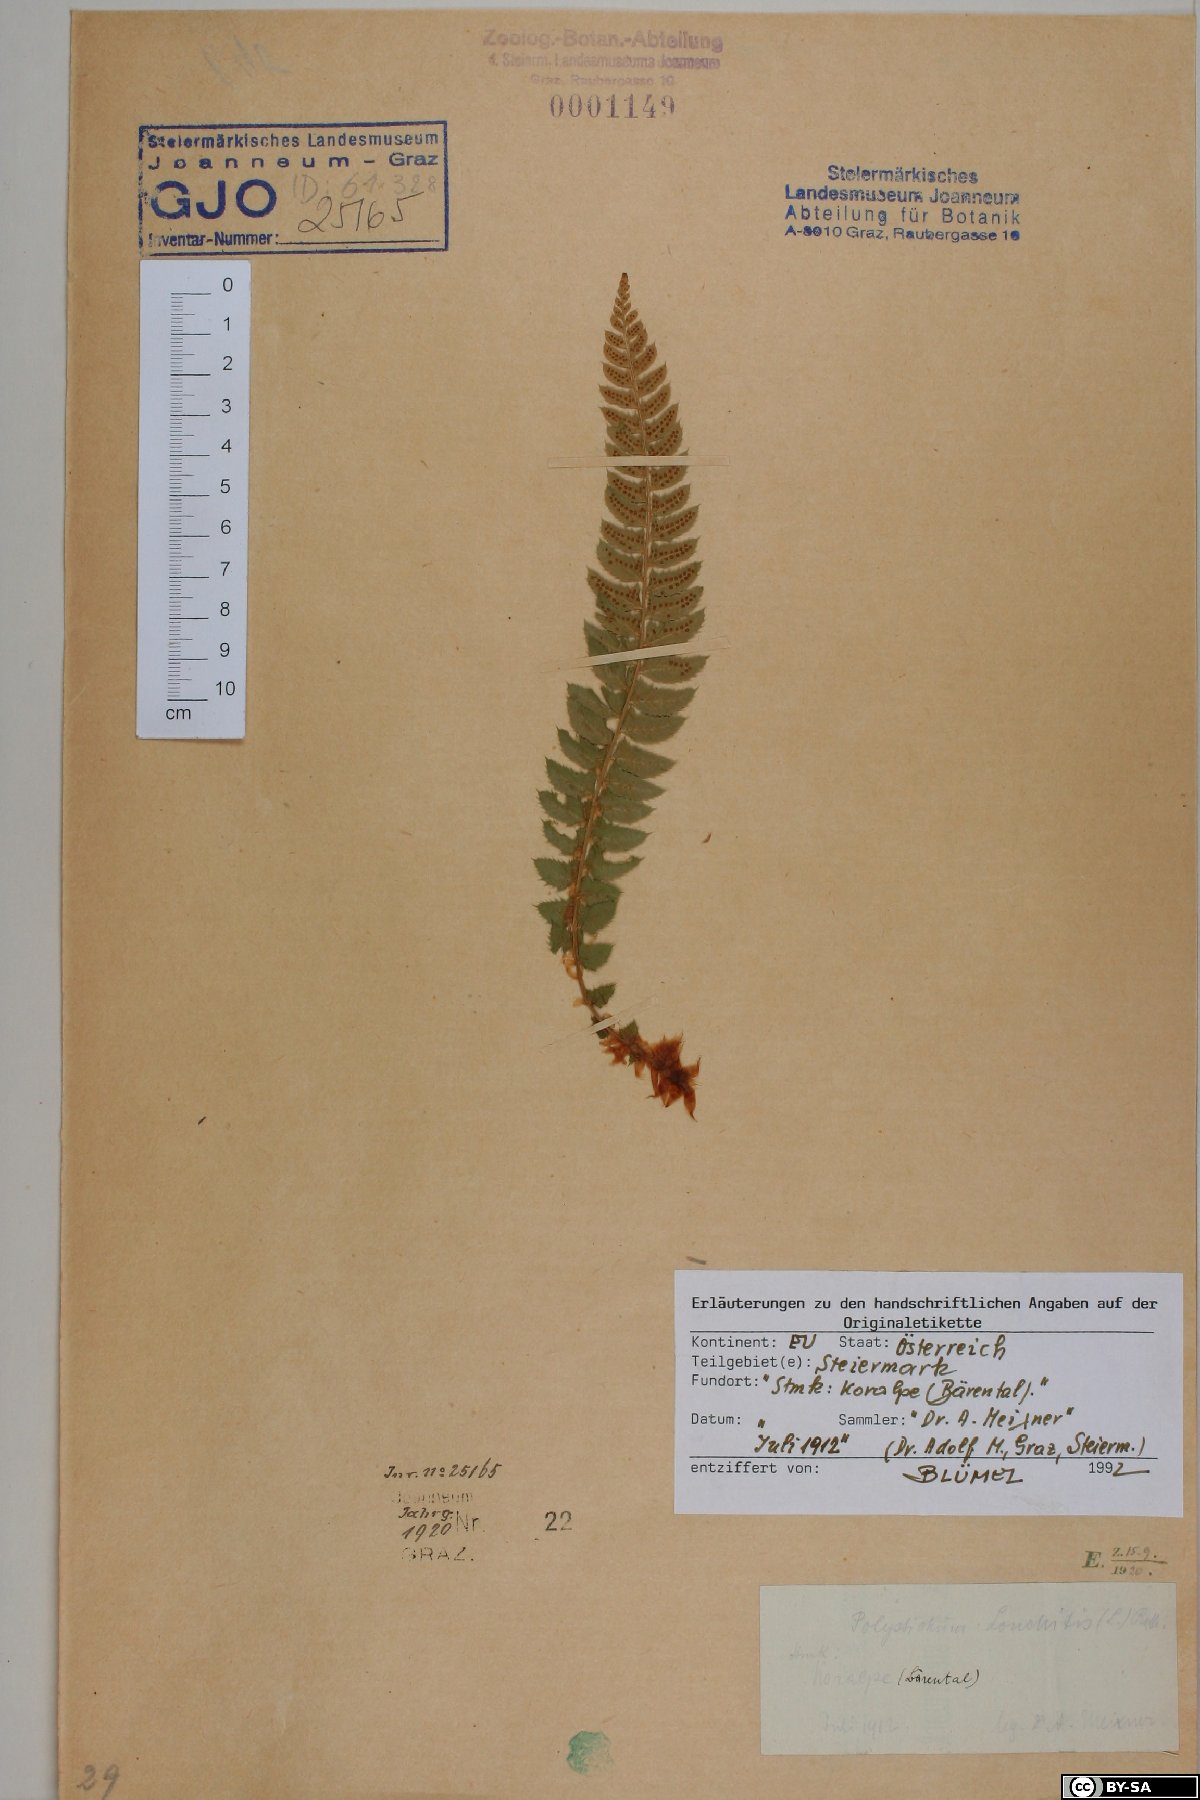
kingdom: Plantae
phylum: Tracheophyta
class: Polypodiopsida
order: Polypodiales
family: Dryopteridaceae
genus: Polystichum
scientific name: Polystichum lonchitis
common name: Holly fern
